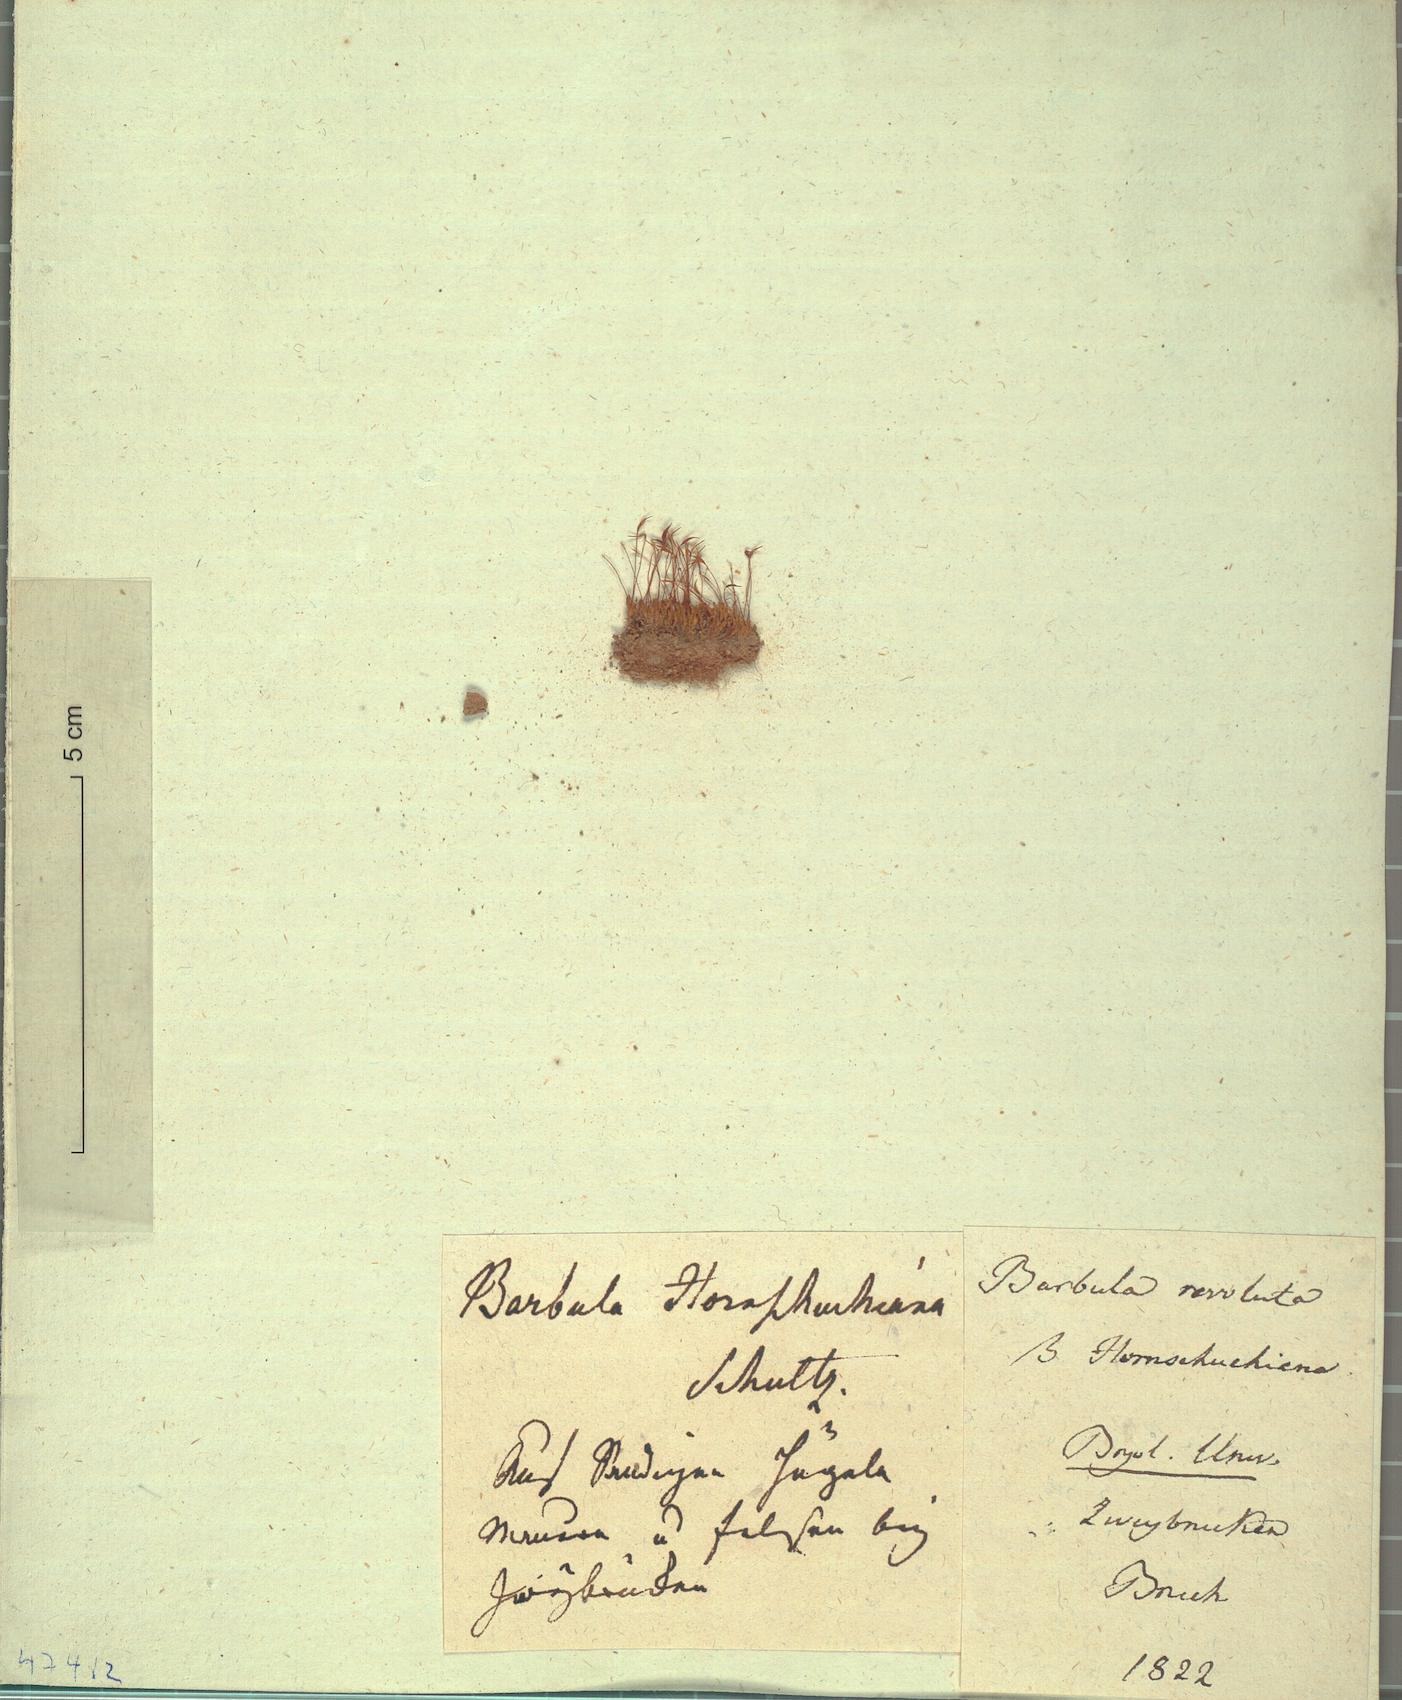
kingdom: Plantae
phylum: Bryophyta
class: Bryopsida
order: Pottiales
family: Pottiaceae
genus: Pseudocrossidium
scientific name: Pseudocrossidium hornschuchianum
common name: Hornschuch's beard-moss
